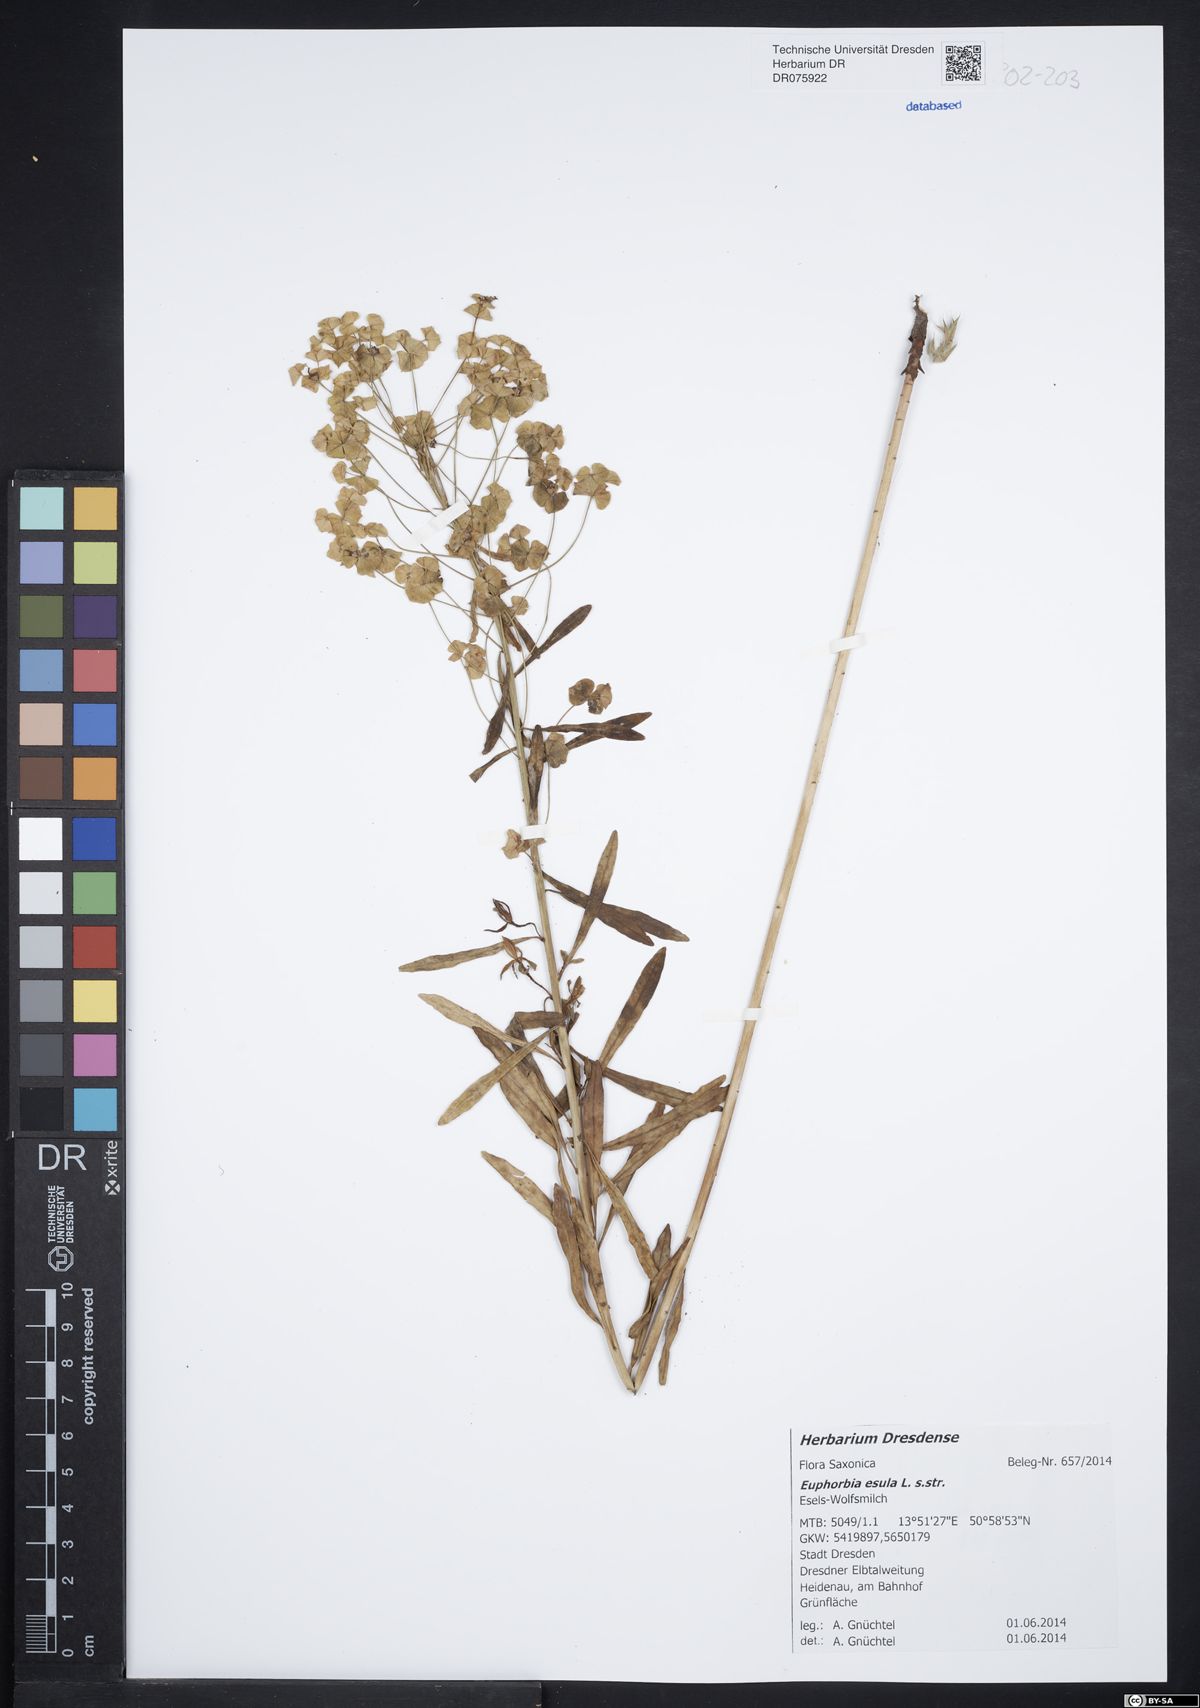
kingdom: Plantae
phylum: Tracheophyta
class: Magnoliopsida
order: Malpighiales
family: Euphorbiaceae
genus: Euphorbia
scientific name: Euphorbia esula
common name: Leafy spurge
